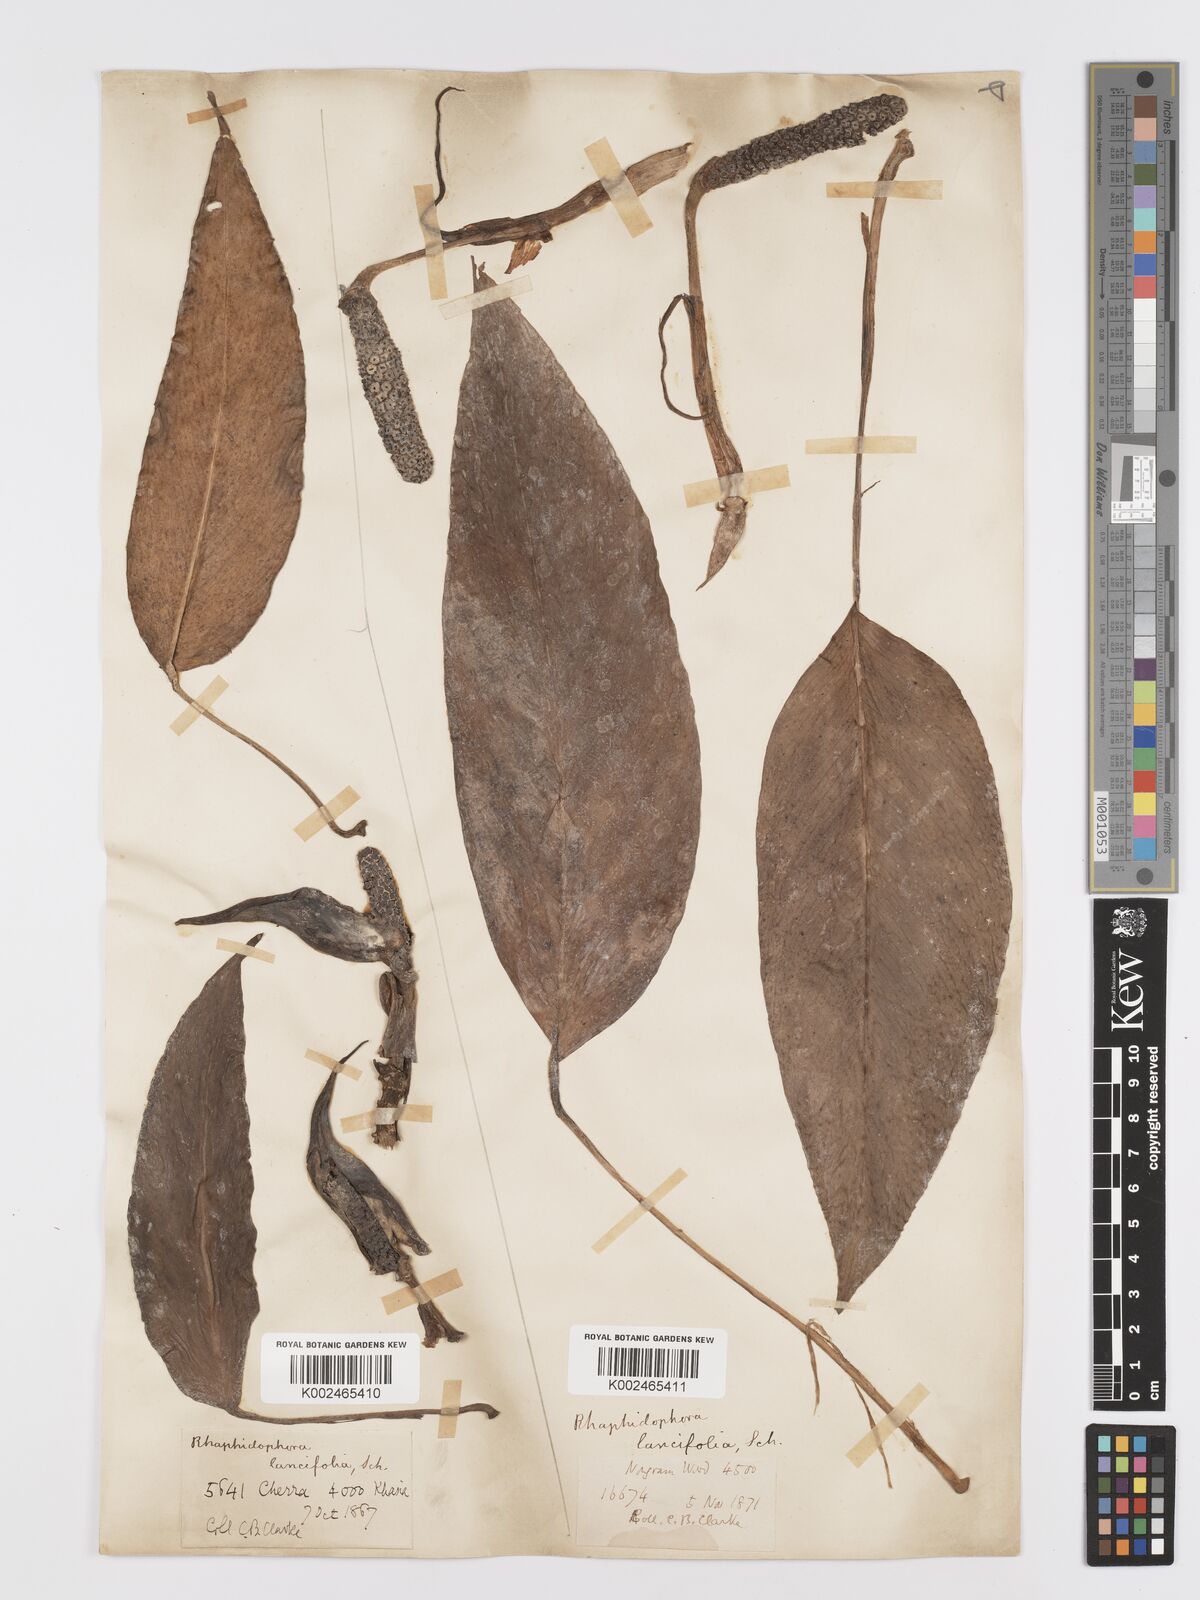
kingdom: Plantae
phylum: Tracheophyta
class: Liliopsida
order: Alismatales
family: Araceae
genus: Rhaphidophora
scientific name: Rhaphidophora peepla
